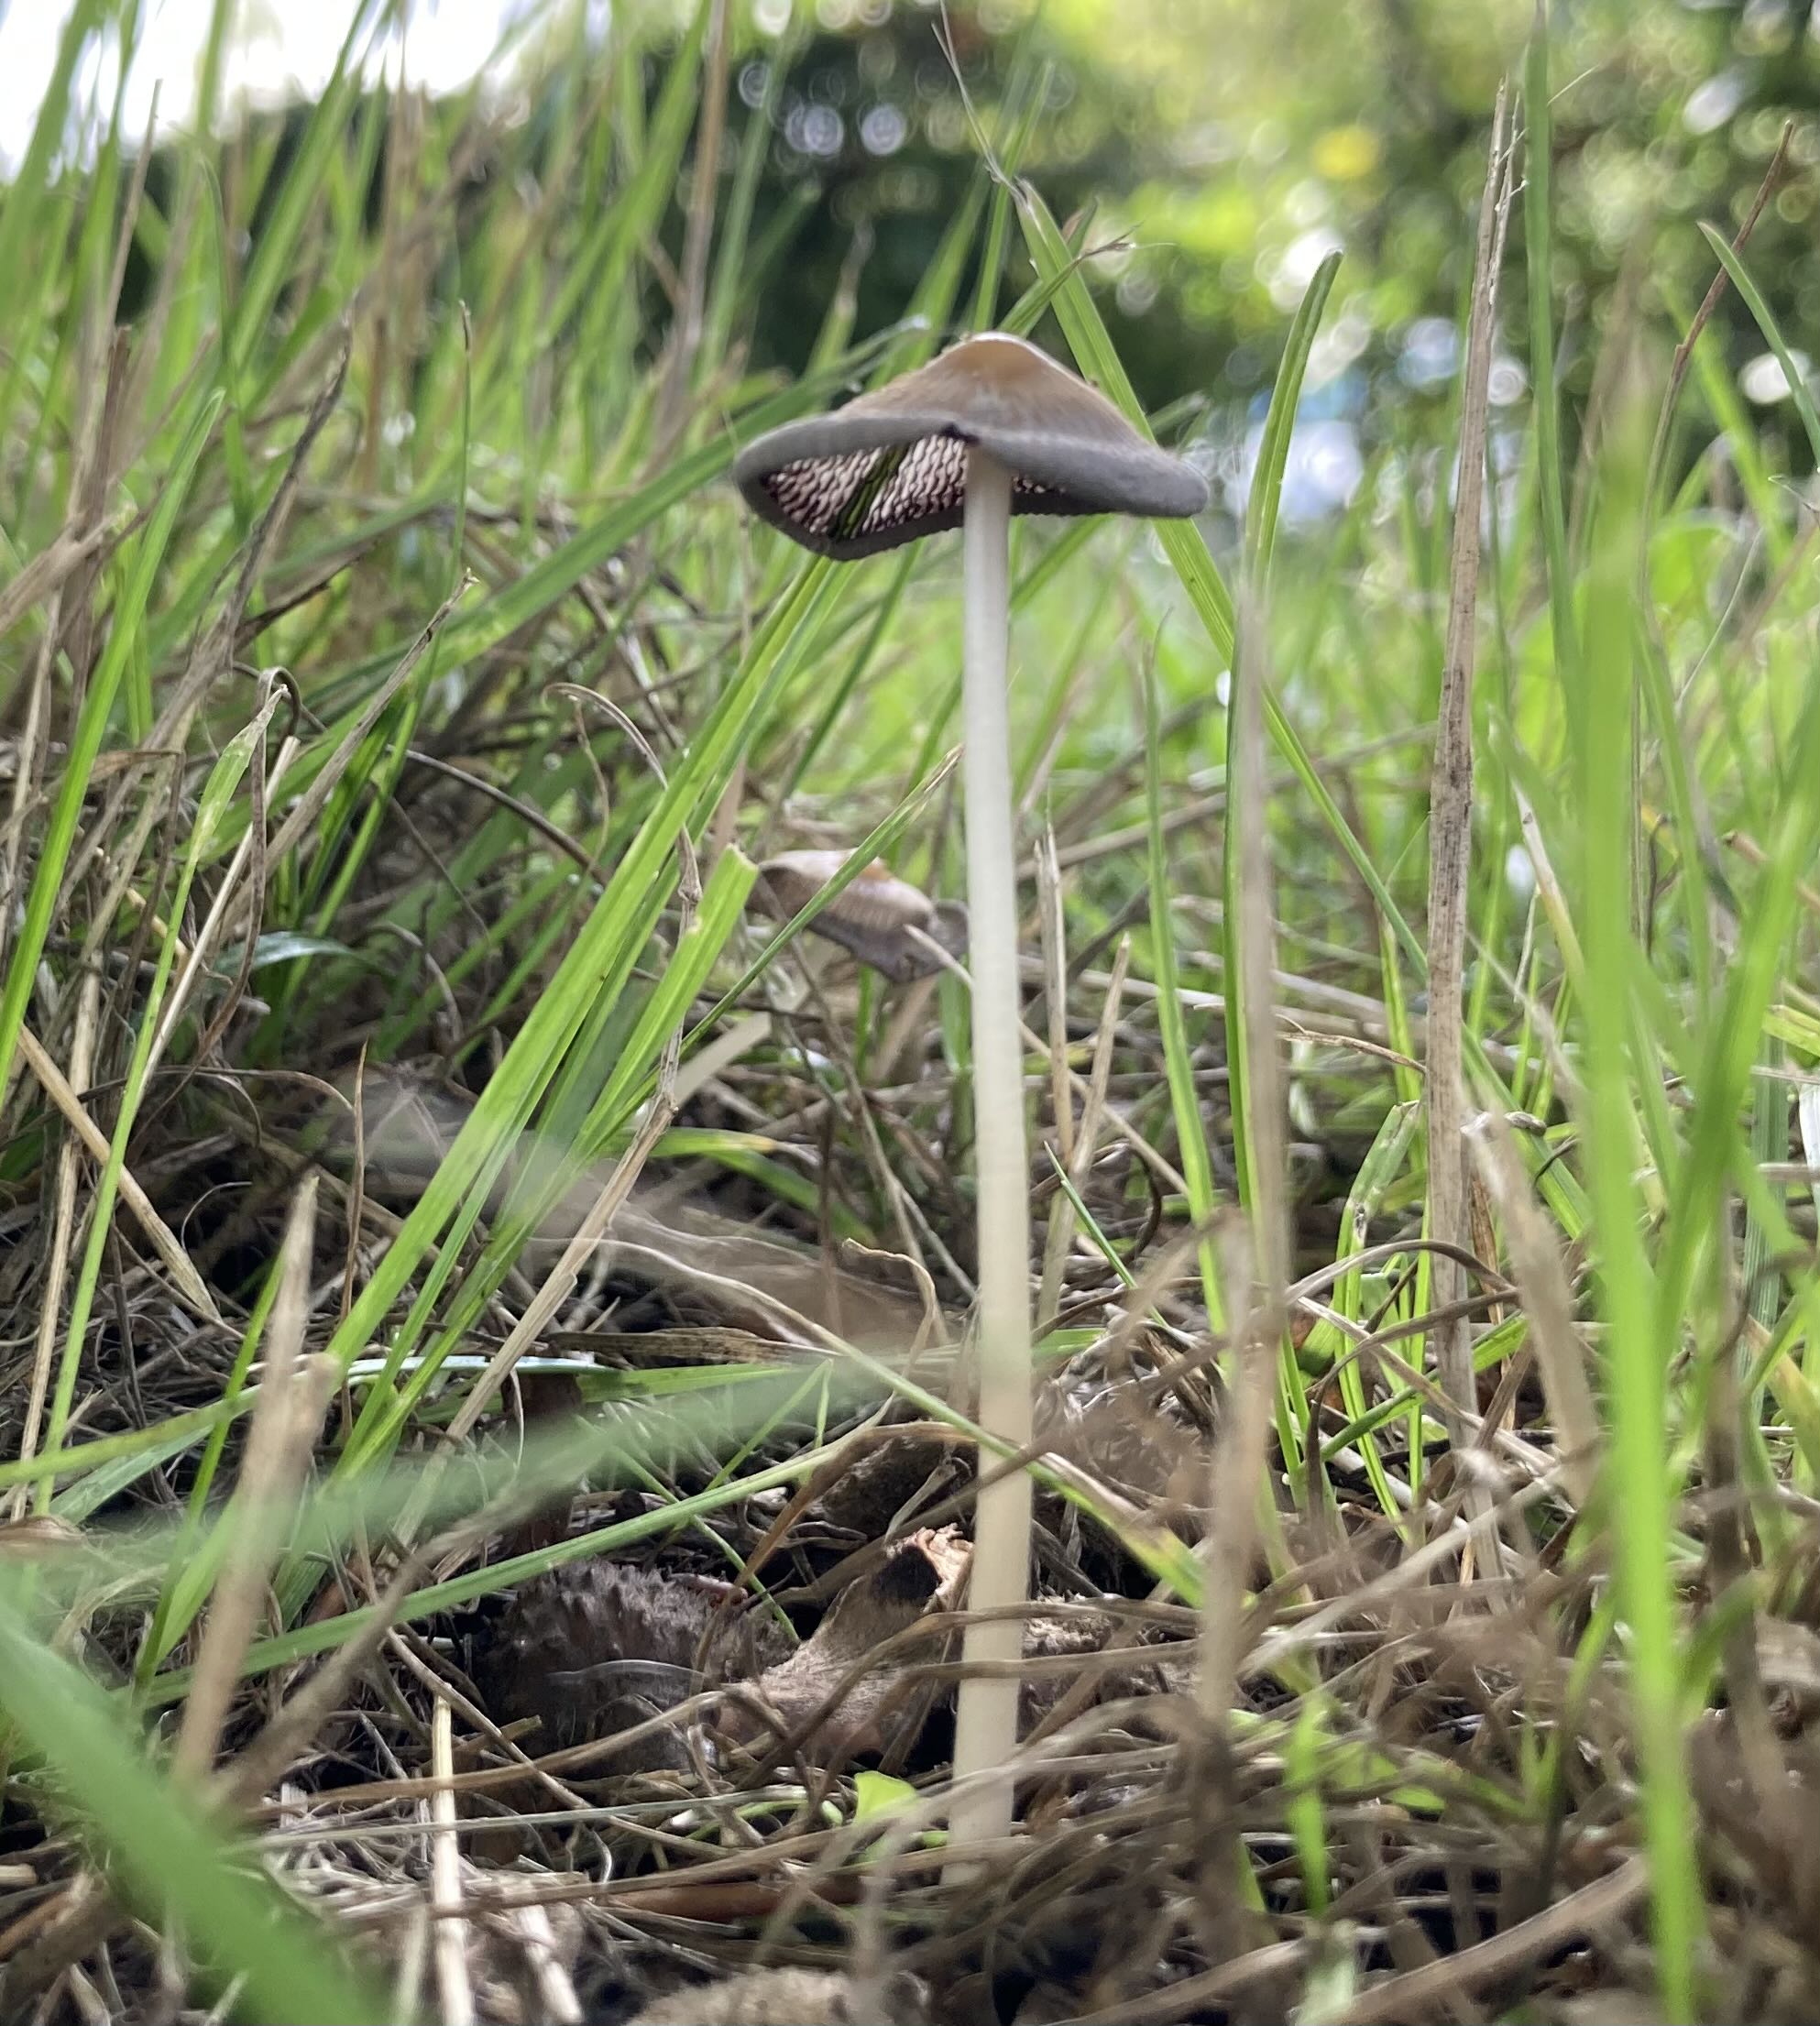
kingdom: Fungi
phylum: Basidiomycota
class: Agaricomycetes
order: Agaricales
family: Psathyrellaceae
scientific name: Psathyrellaceae
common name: mørkhatfamilien
